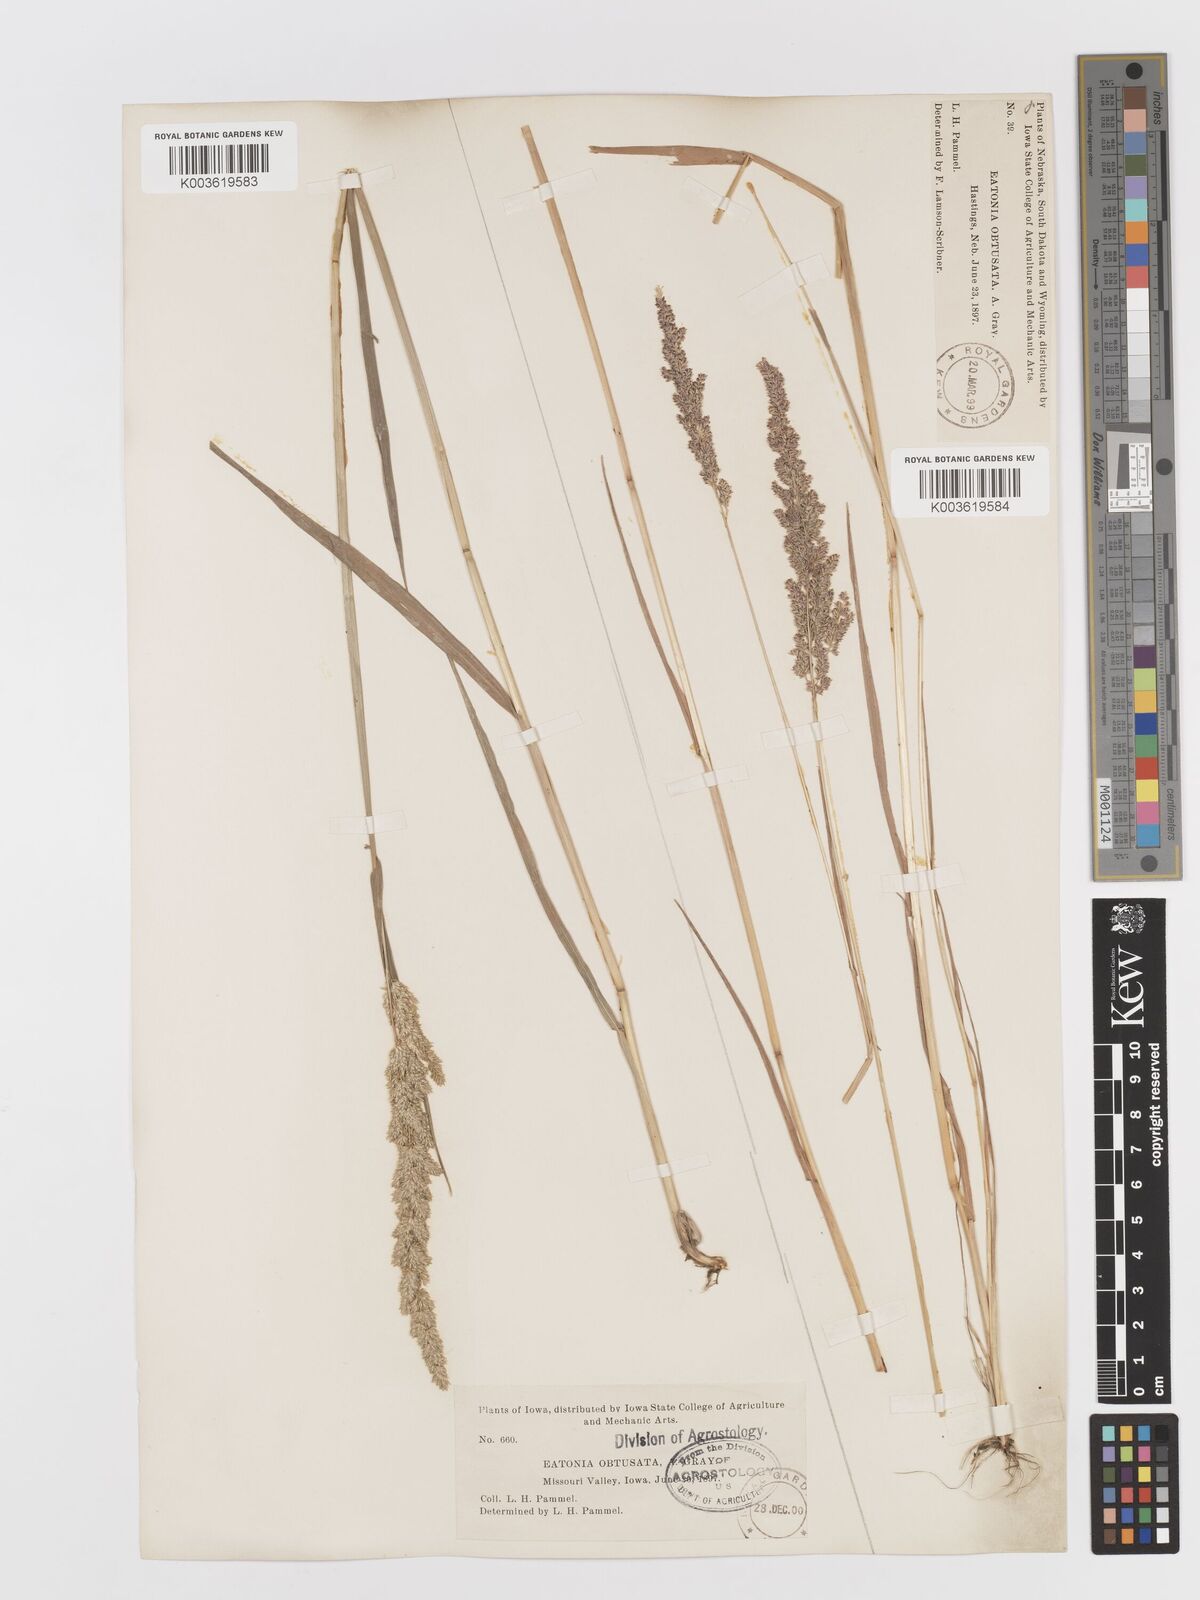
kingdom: Plantae
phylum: Tracheophyta
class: Liliopsida
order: Poales
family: Poaceae
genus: Sphenopholis
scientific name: Sphenopholis obtusata
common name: Prairie grass
